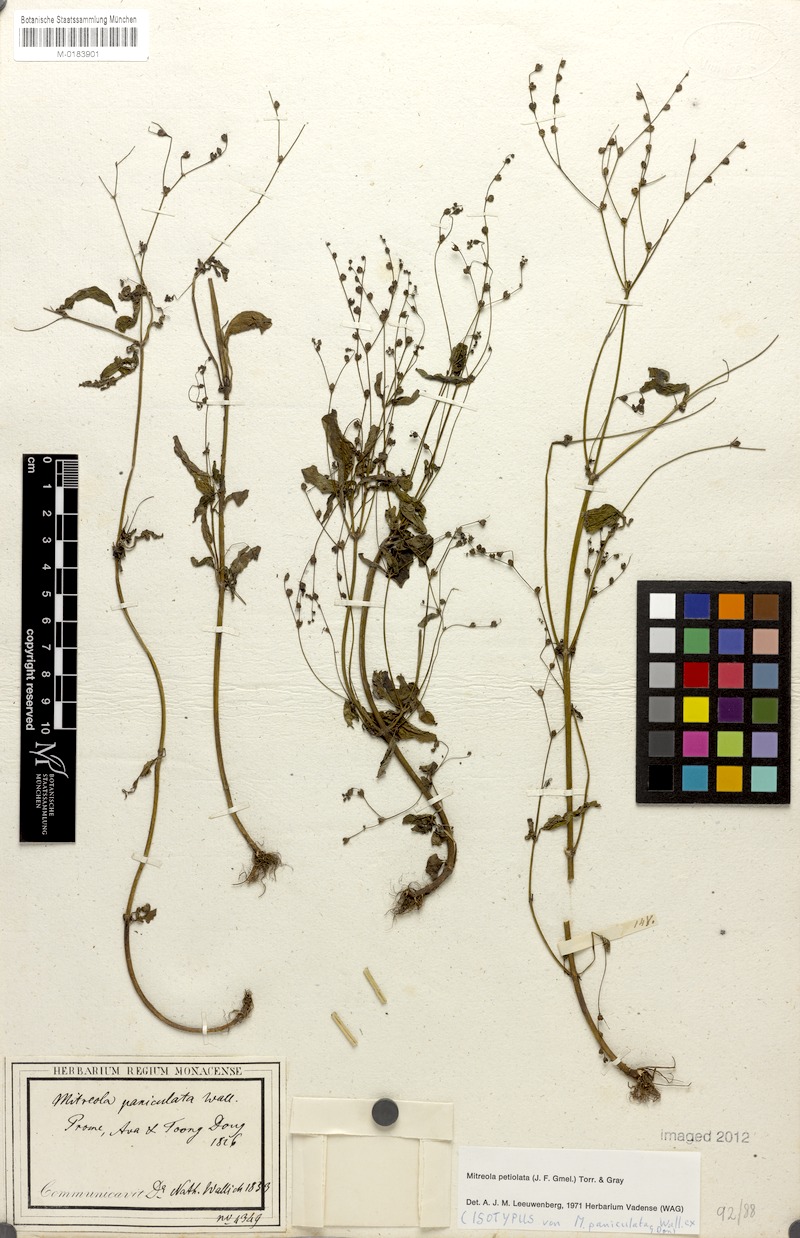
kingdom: Plantae
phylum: Tracheophyta
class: Magnoliopsida
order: Gentianales
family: Loganiaceae
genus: Mitreola
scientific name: Mitreola petiolata
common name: Lax hornpod
